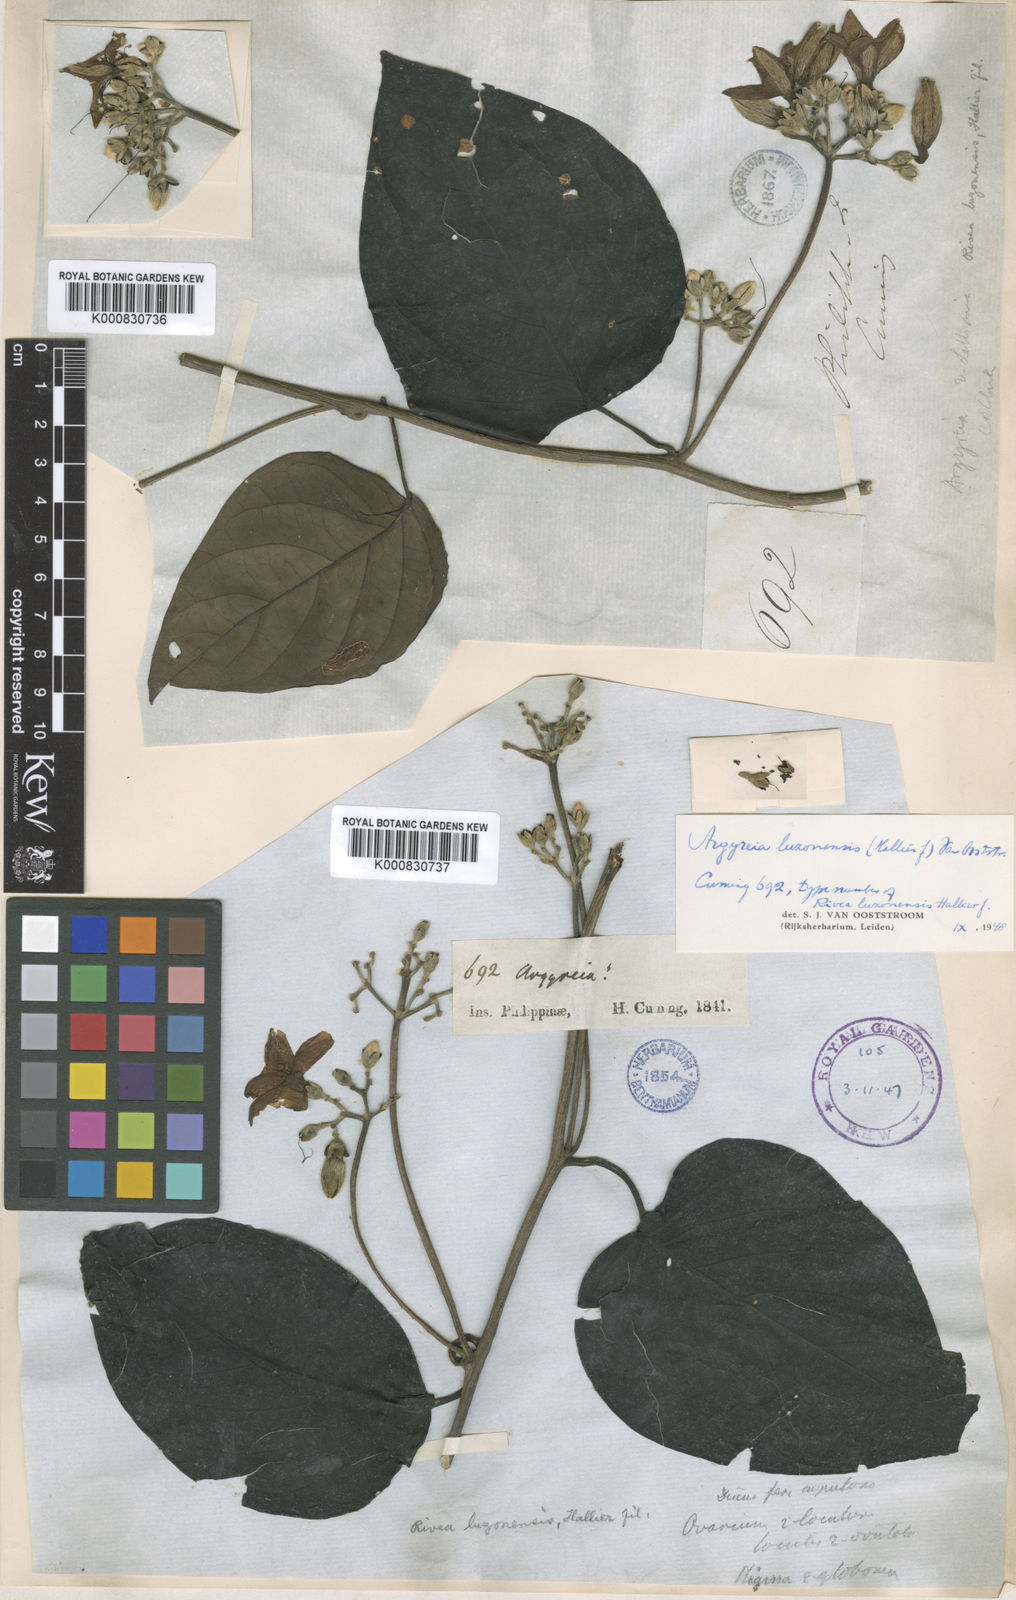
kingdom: Plantae
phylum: Tracheophyta
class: Magnoliopsida
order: Solanales
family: Convolvulaceae
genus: Argyreia
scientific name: Argyreia luzonensis
